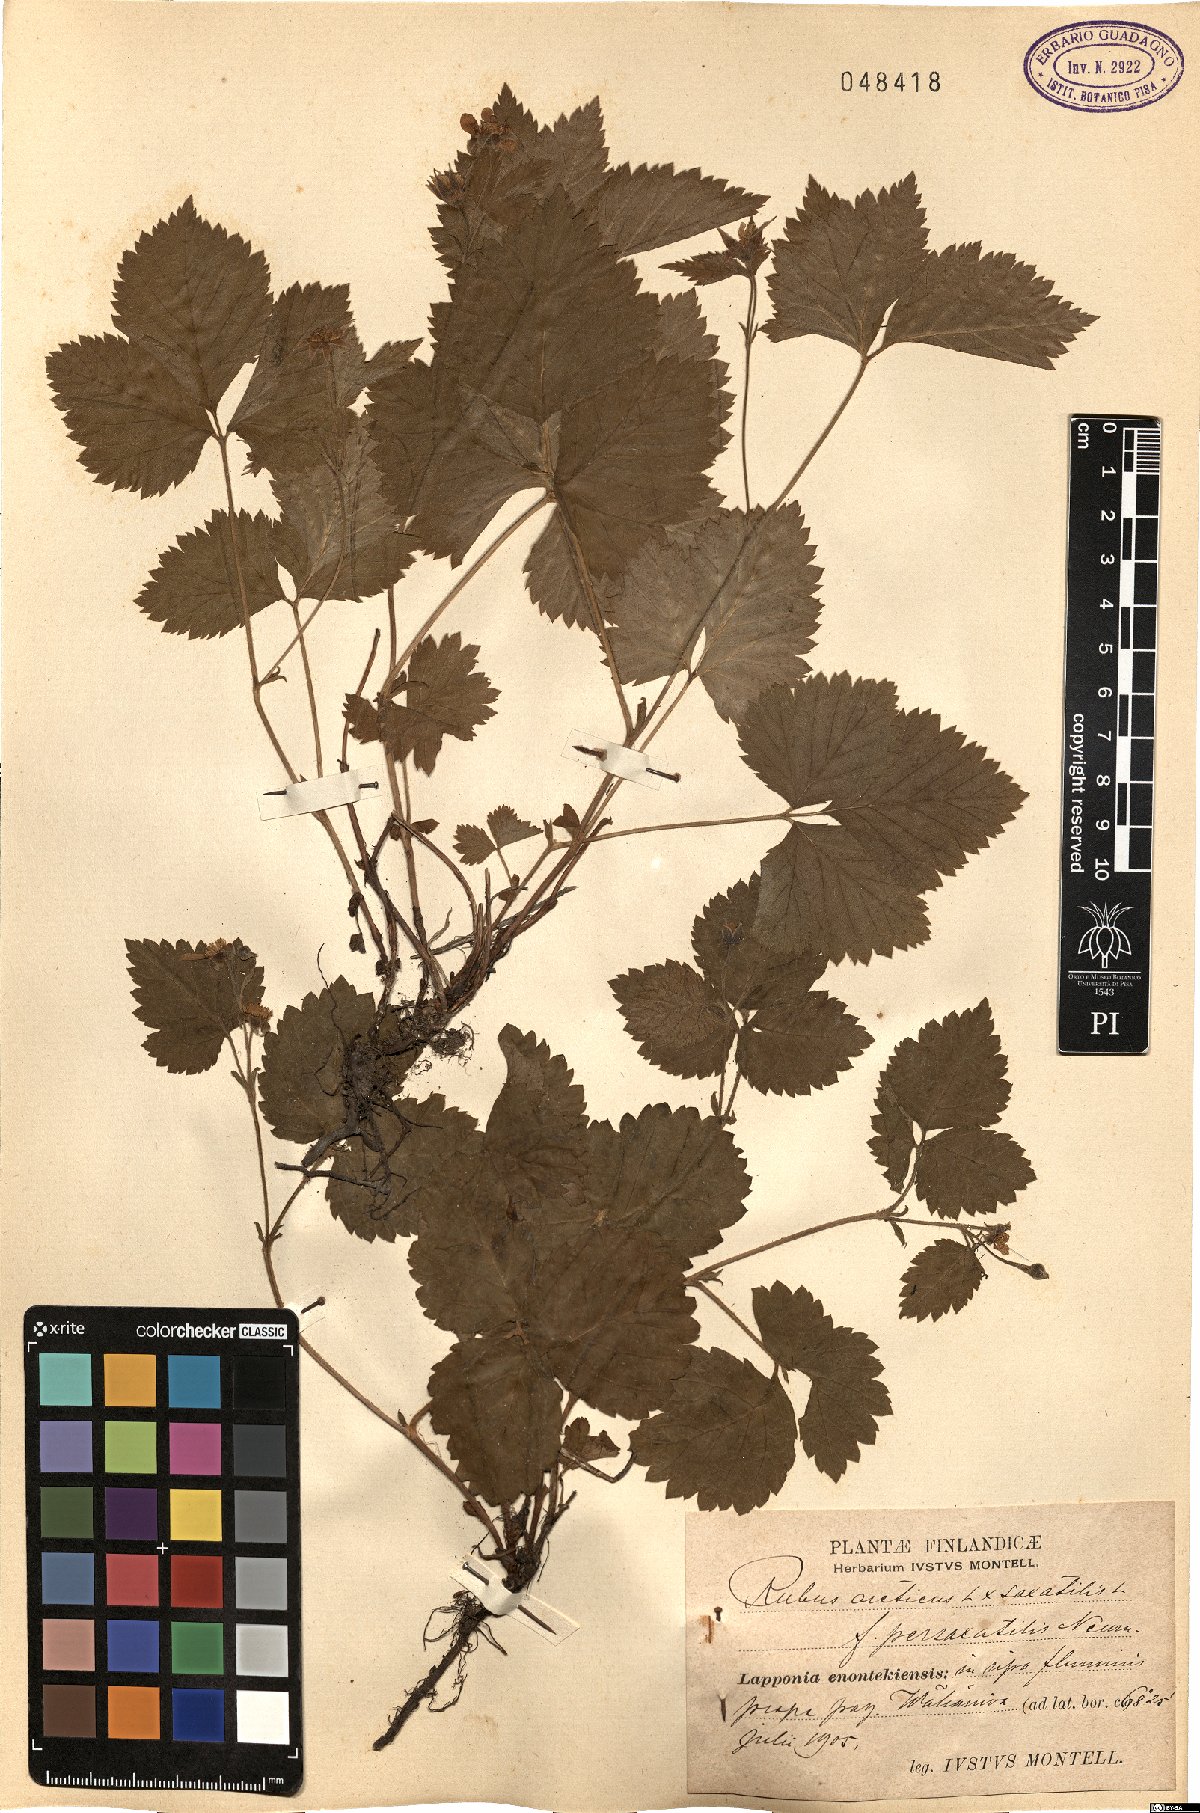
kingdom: Plantae
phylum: Tracheophyta
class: Magnoliopsida
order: Rosales
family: Rosaceae
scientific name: Rosaceae
